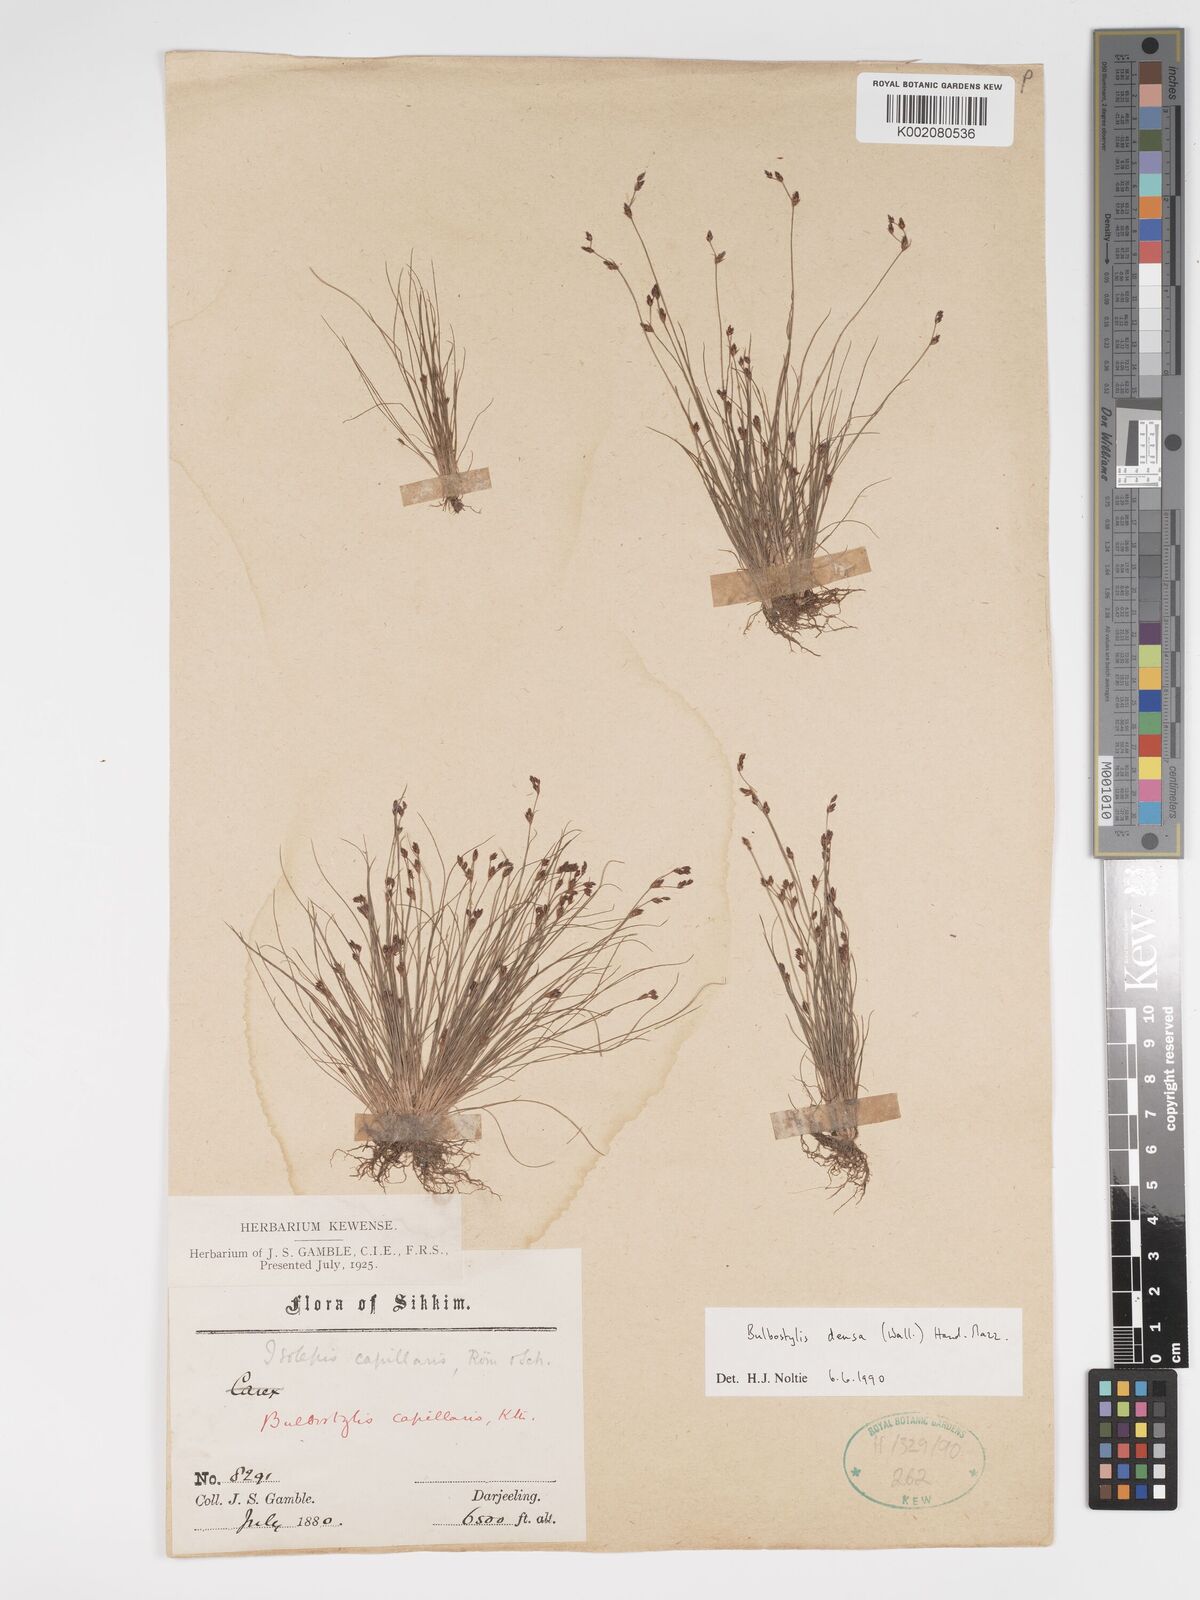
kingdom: Plantae
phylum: Tracheophyta
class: Liliopsida
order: Poales
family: Cyperaceae
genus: Bulbostylis
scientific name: Bulbostylis densa
